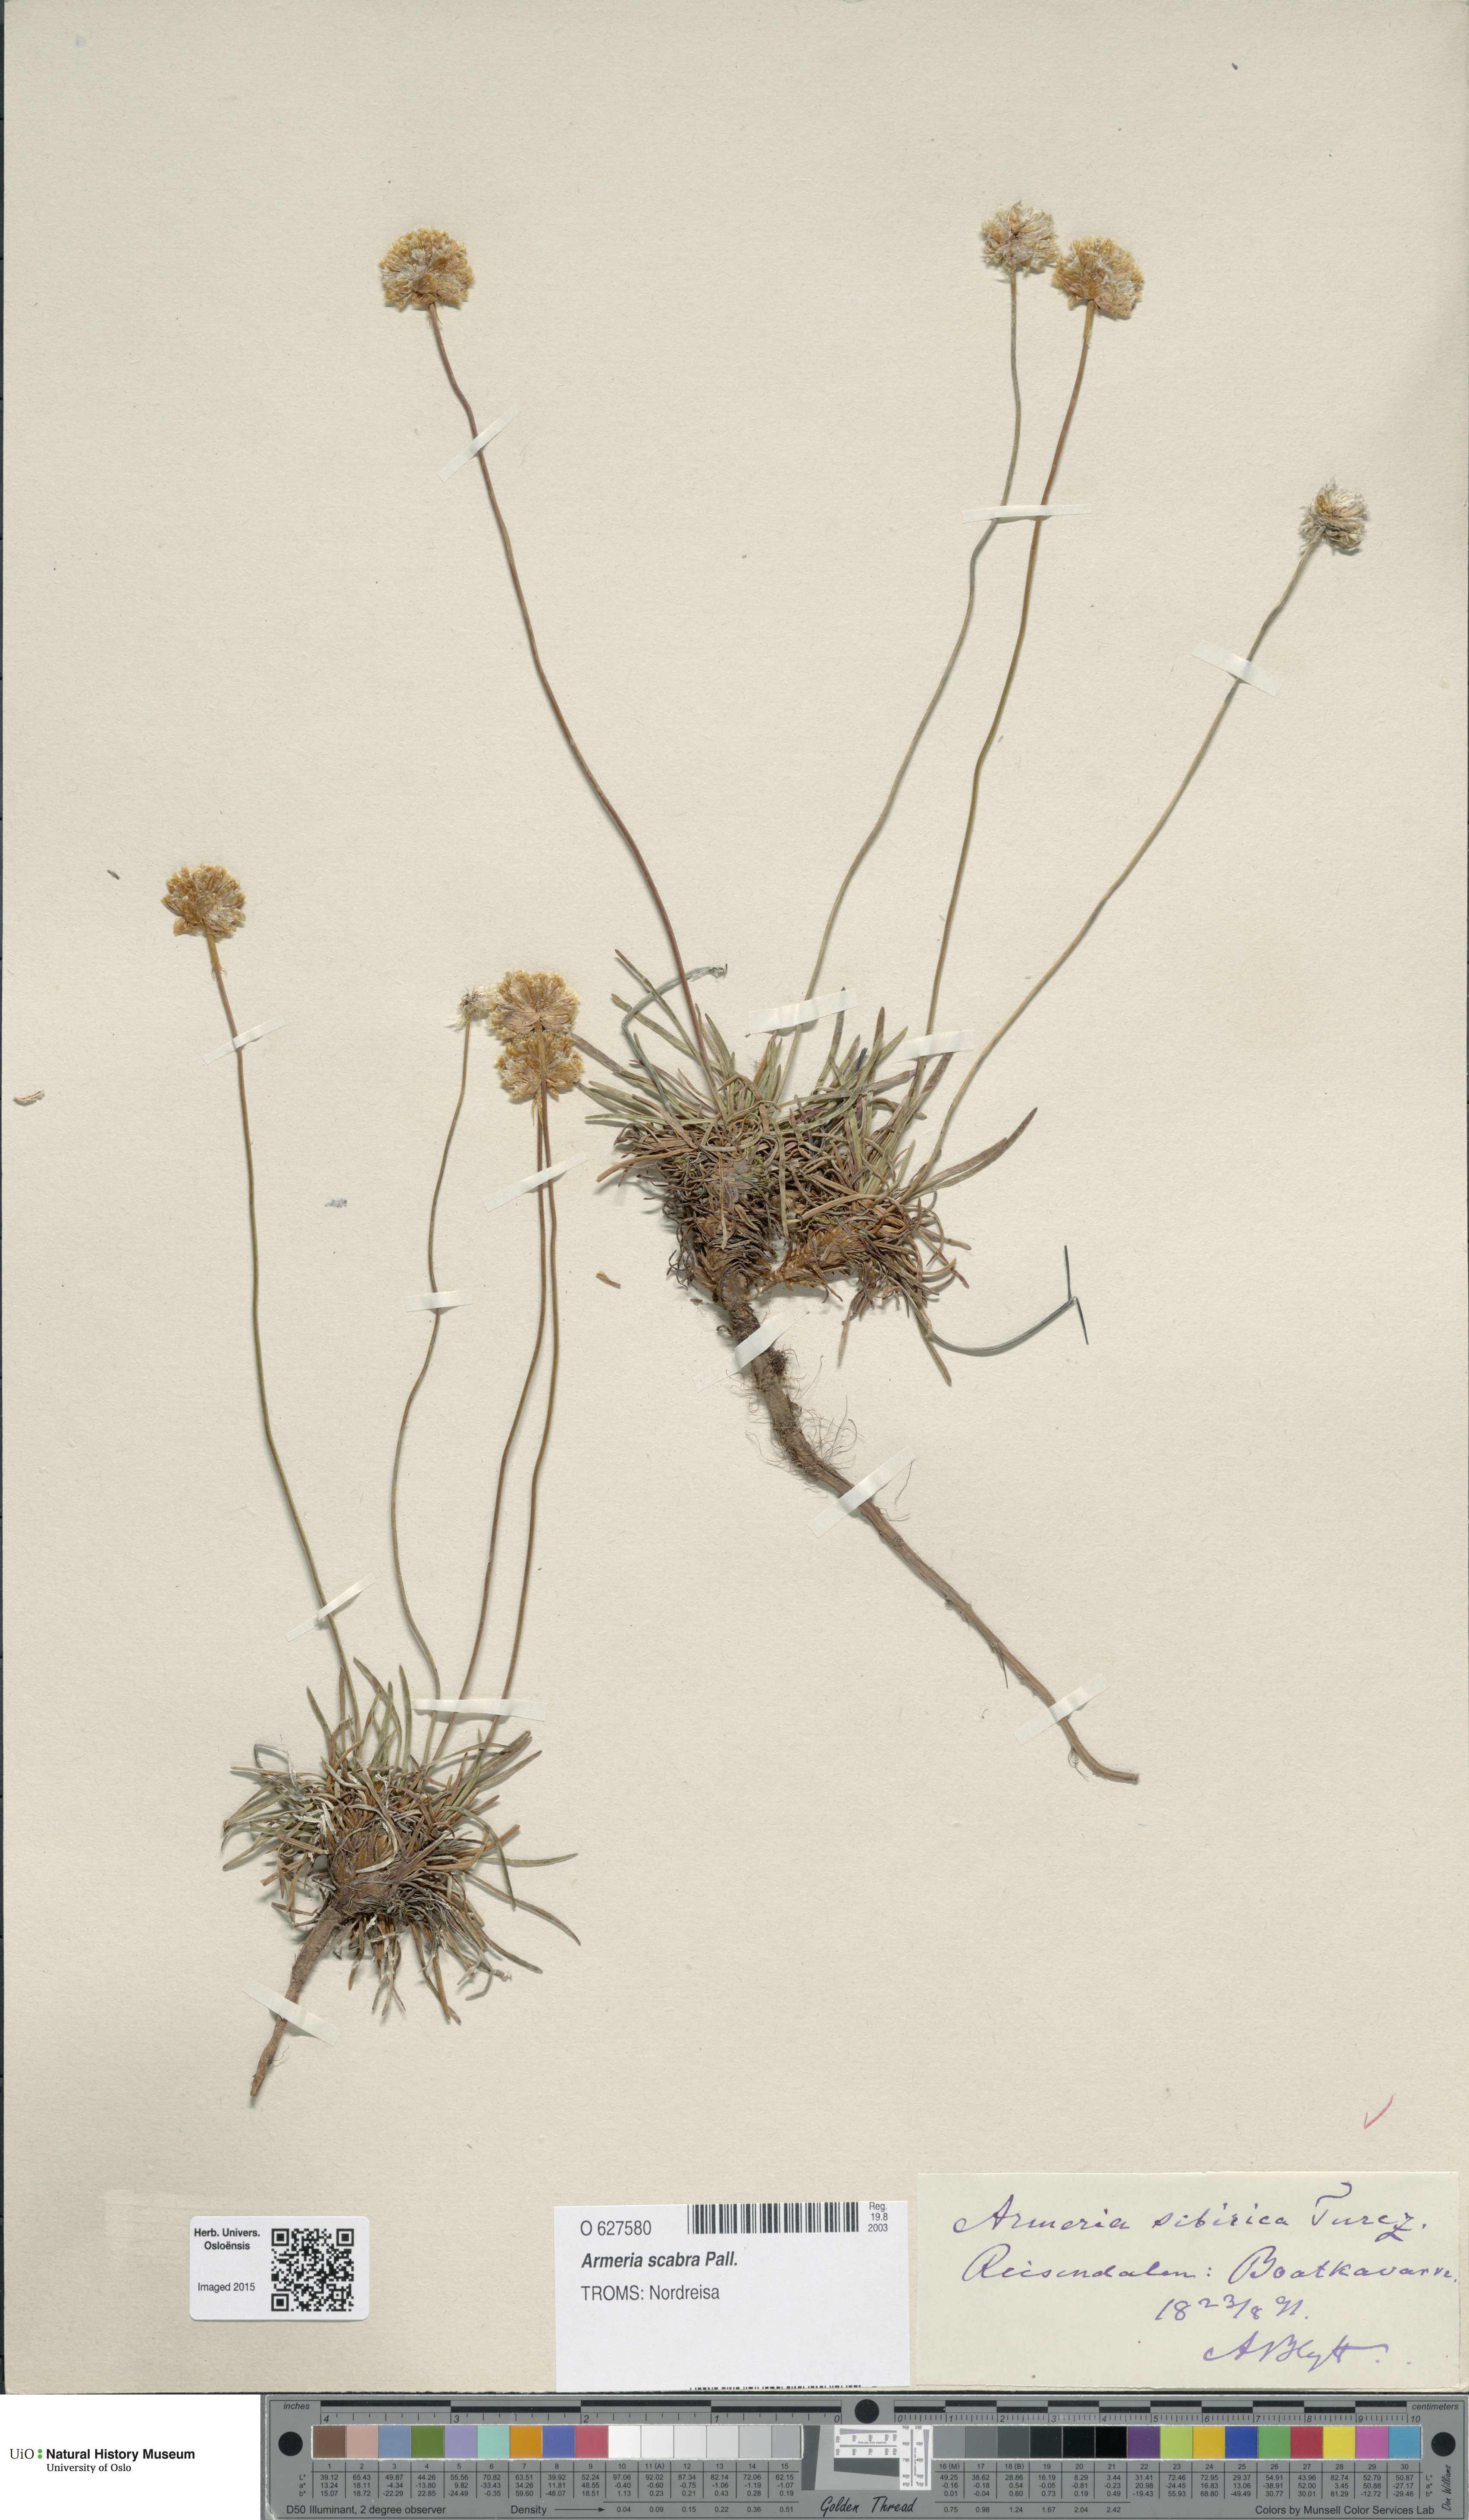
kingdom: Plantae
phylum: Tracheophyta
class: Magnoliopsida
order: Caryophyllales
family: Plumbaginaceae
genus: Armeria
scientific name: Armeria maritima
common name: Thrift
